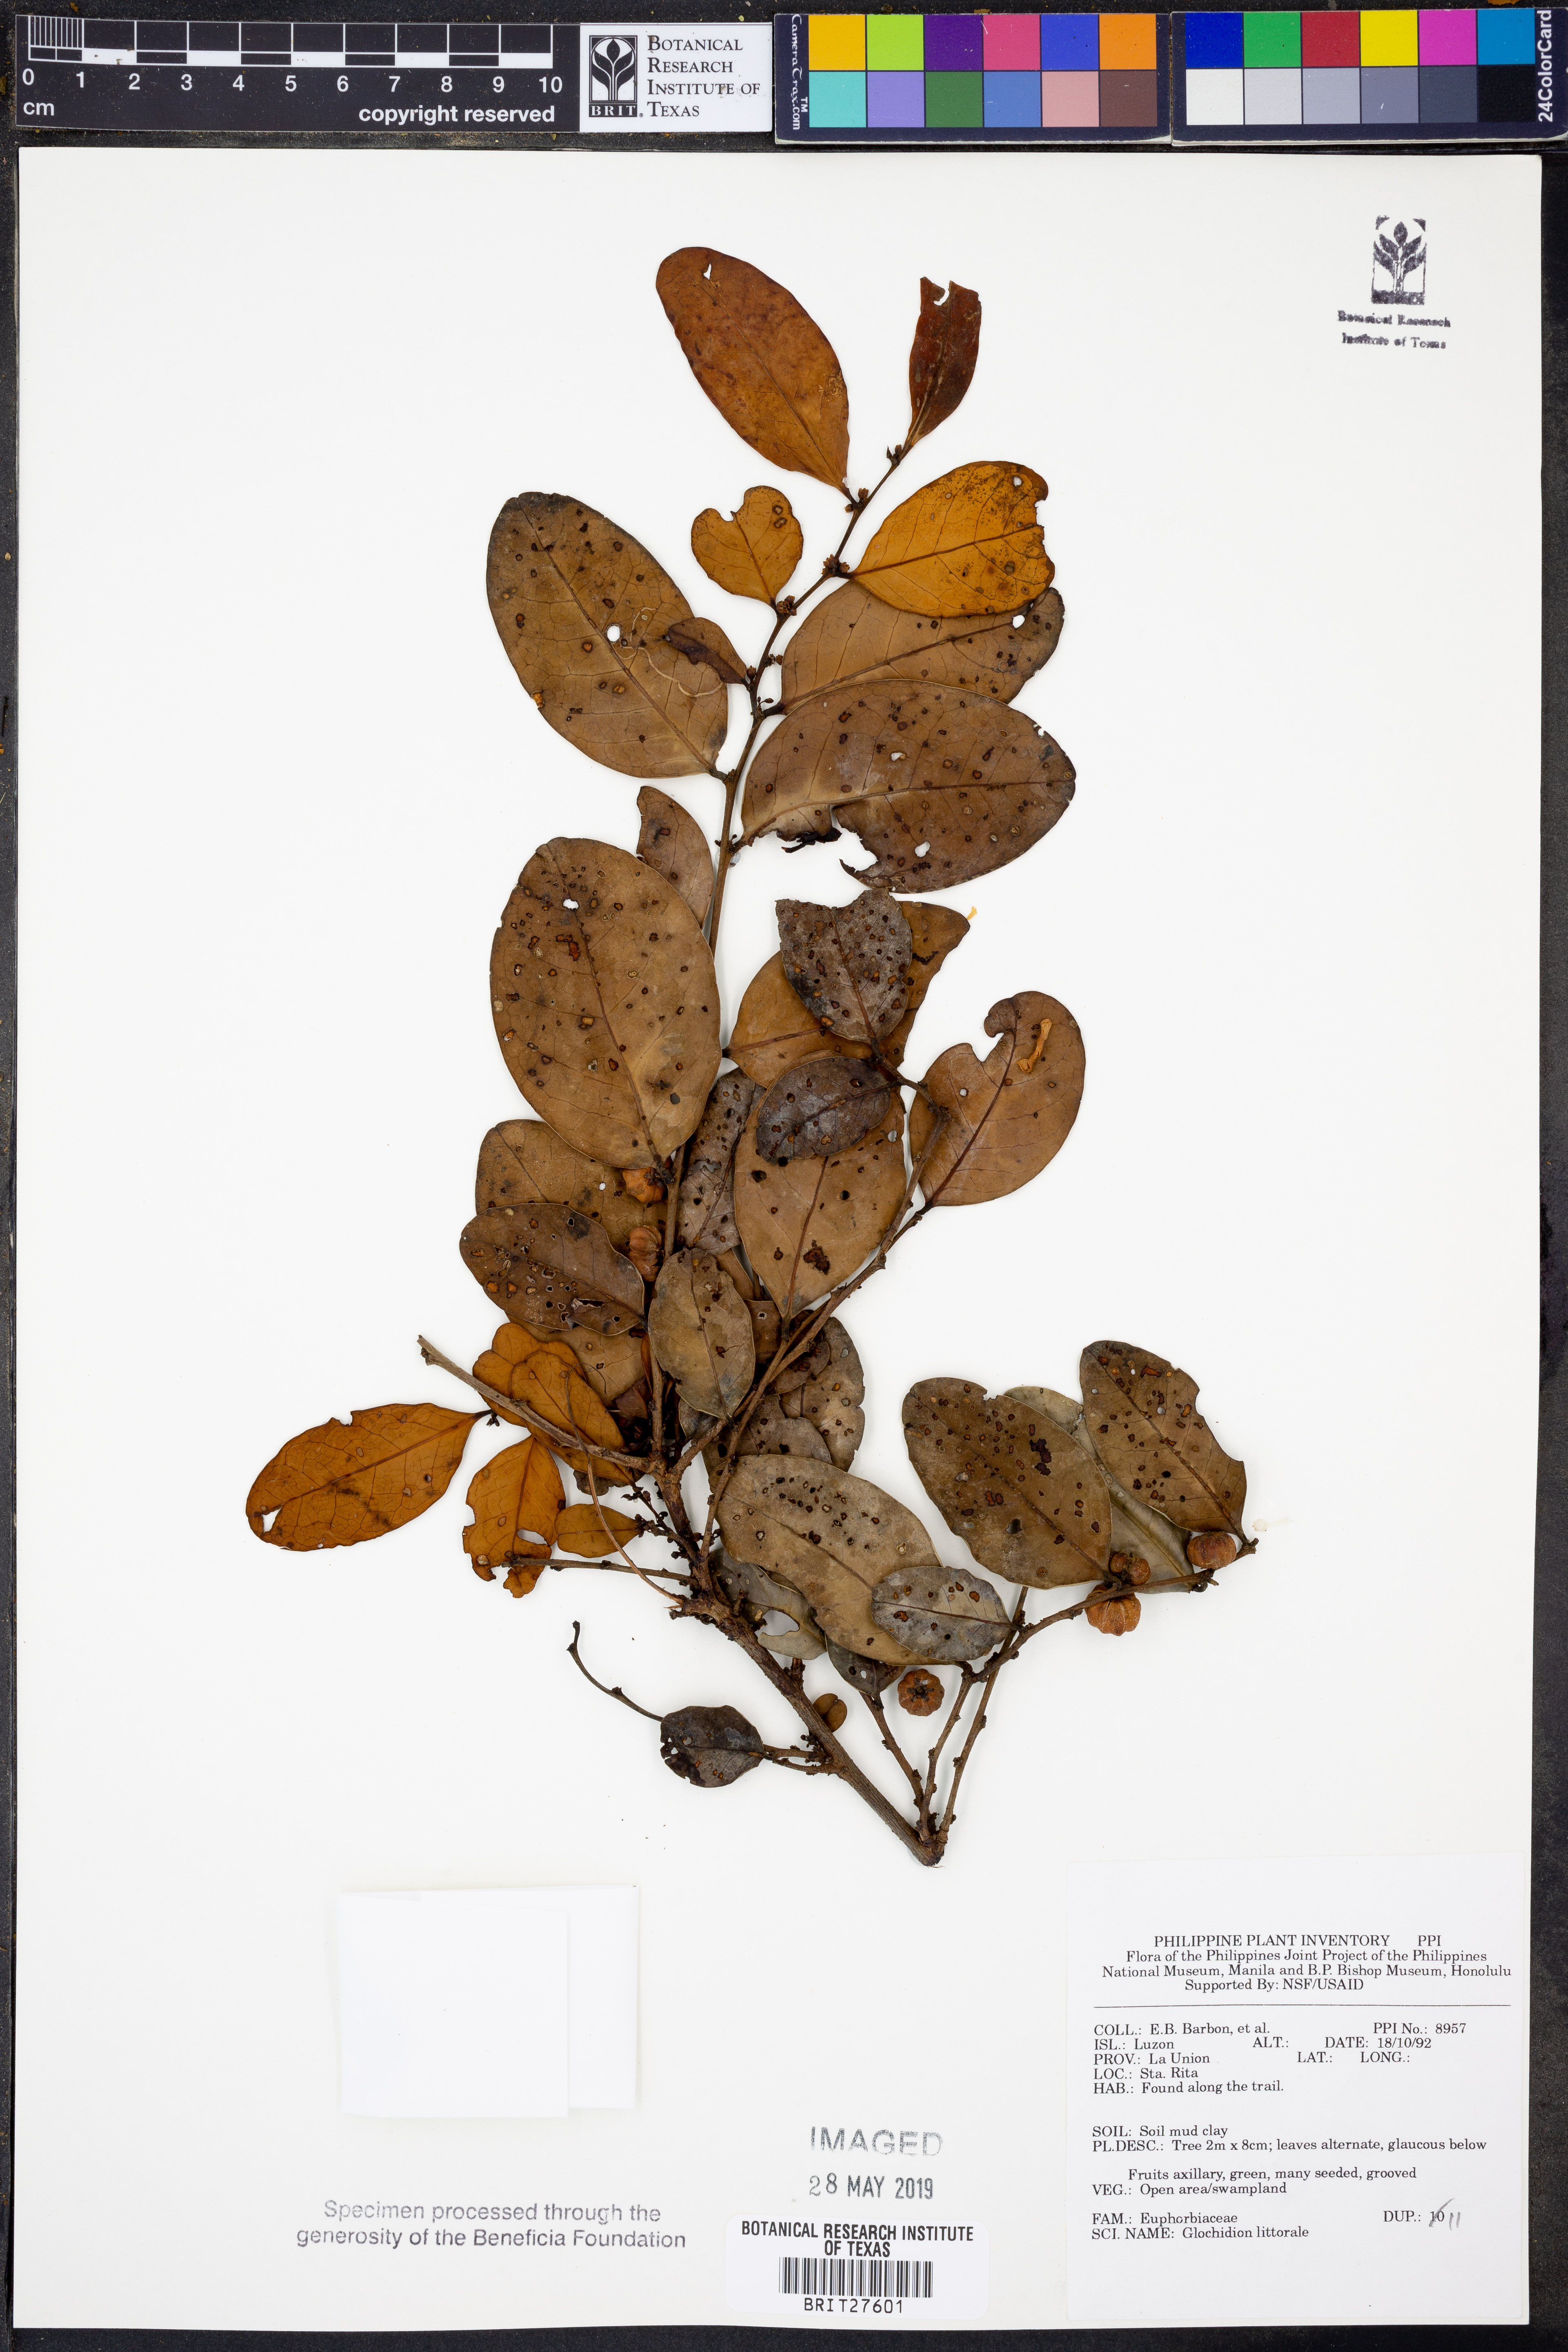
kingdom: Plantae
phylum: Tracheophyta
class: Magnoliopsida
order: Malpighiales
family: Phyllanthaceae
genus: Glochidion
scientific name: Glochidion littorale
